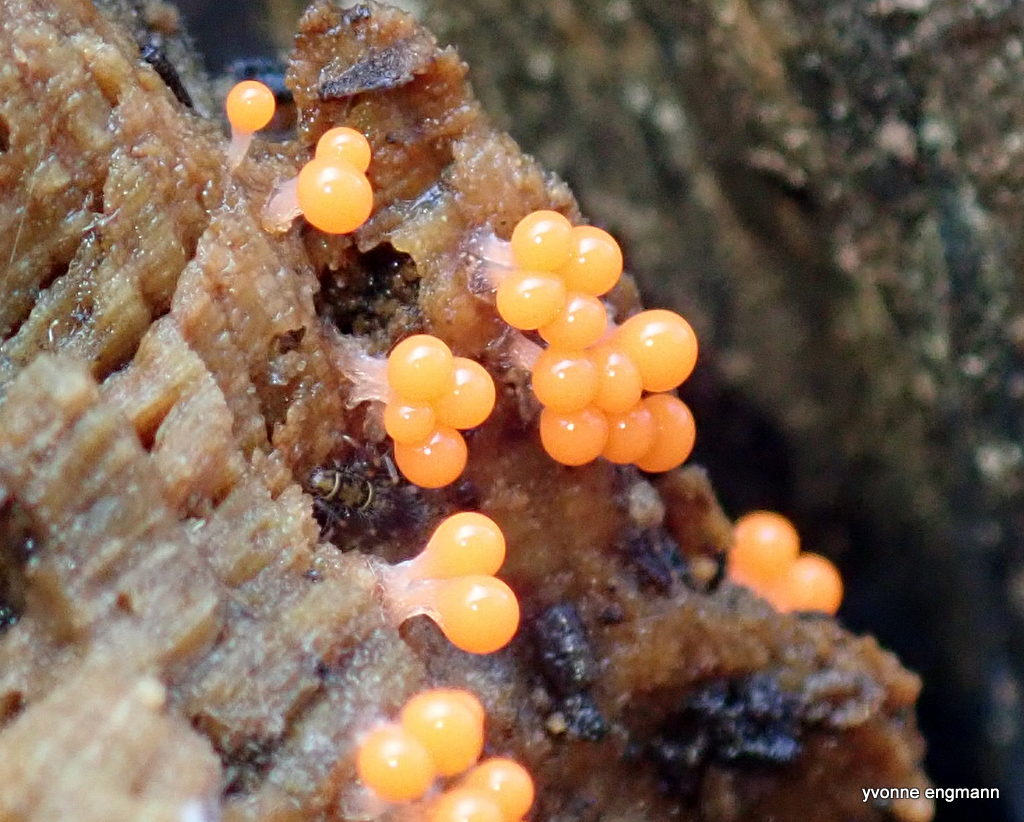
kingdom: Protozoa
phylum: Mycetozoa
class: Myxomycetes
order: Trichiales
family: Trichiaceae
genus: Trichia
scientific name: Trichia
